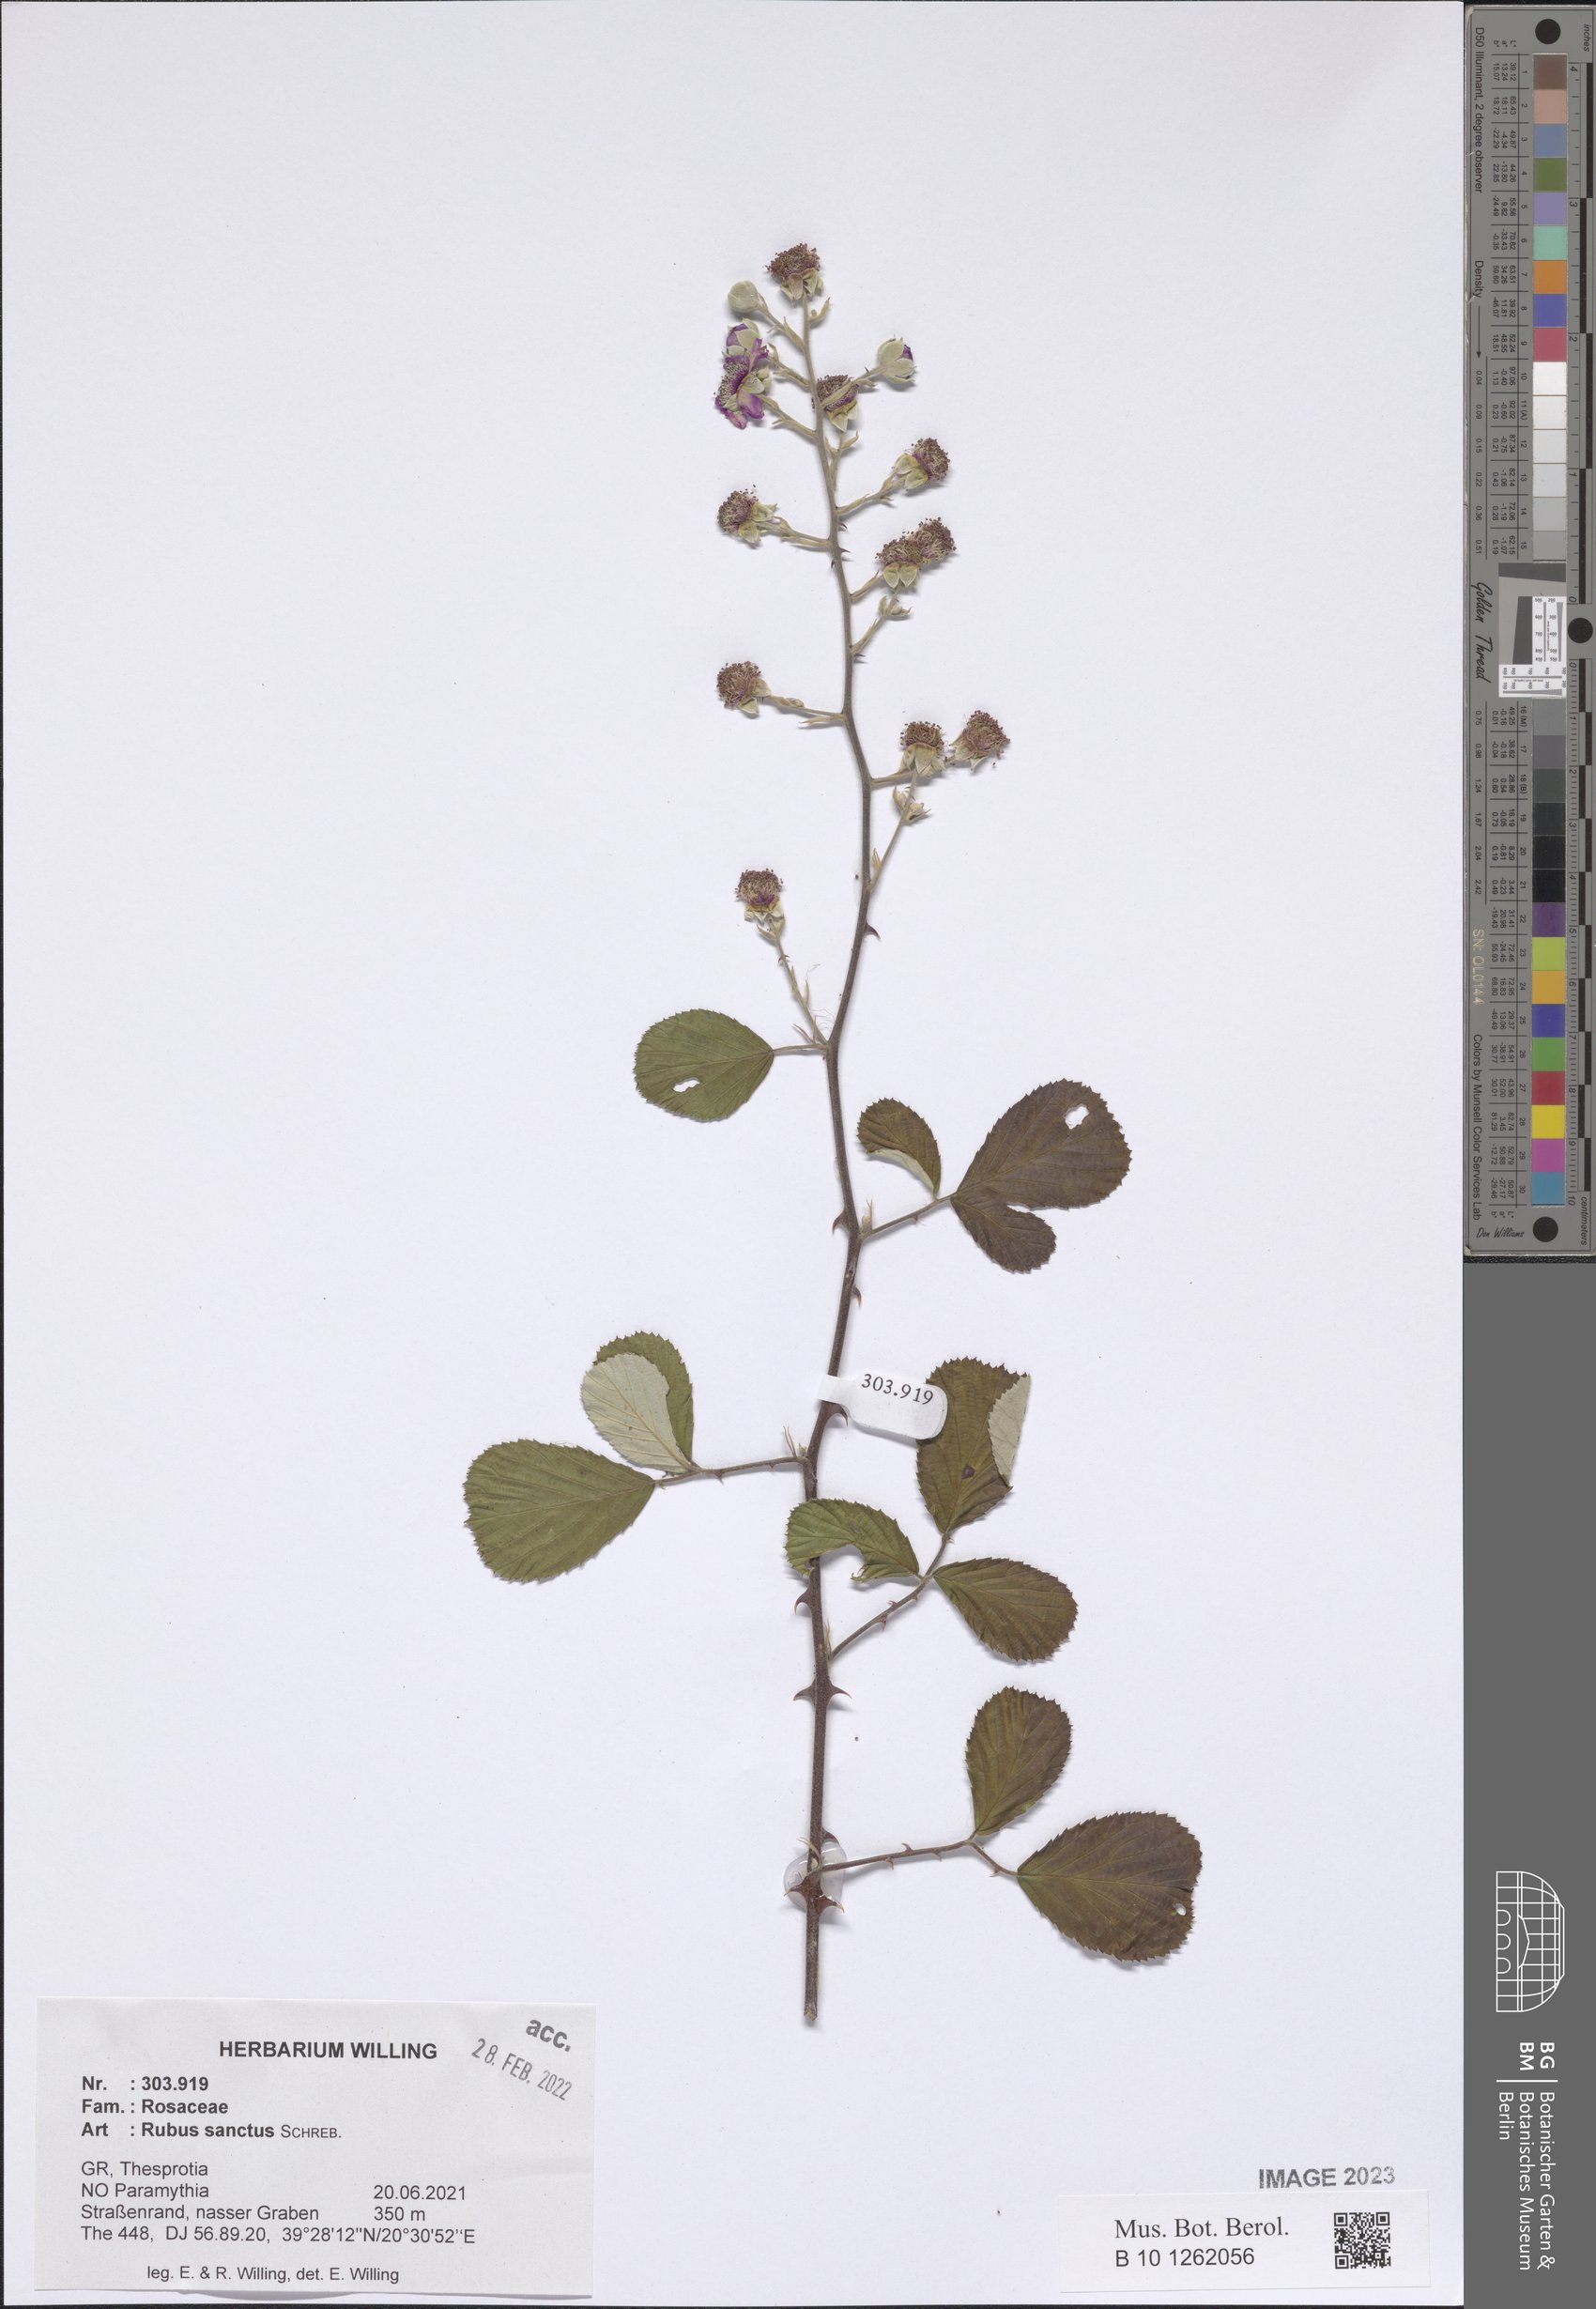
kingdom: Plantae
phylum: Tracheophyta
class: Magnoliopsida
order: Rosales
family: Rosaceae
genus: Rubus
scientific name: Rubus sanctus
